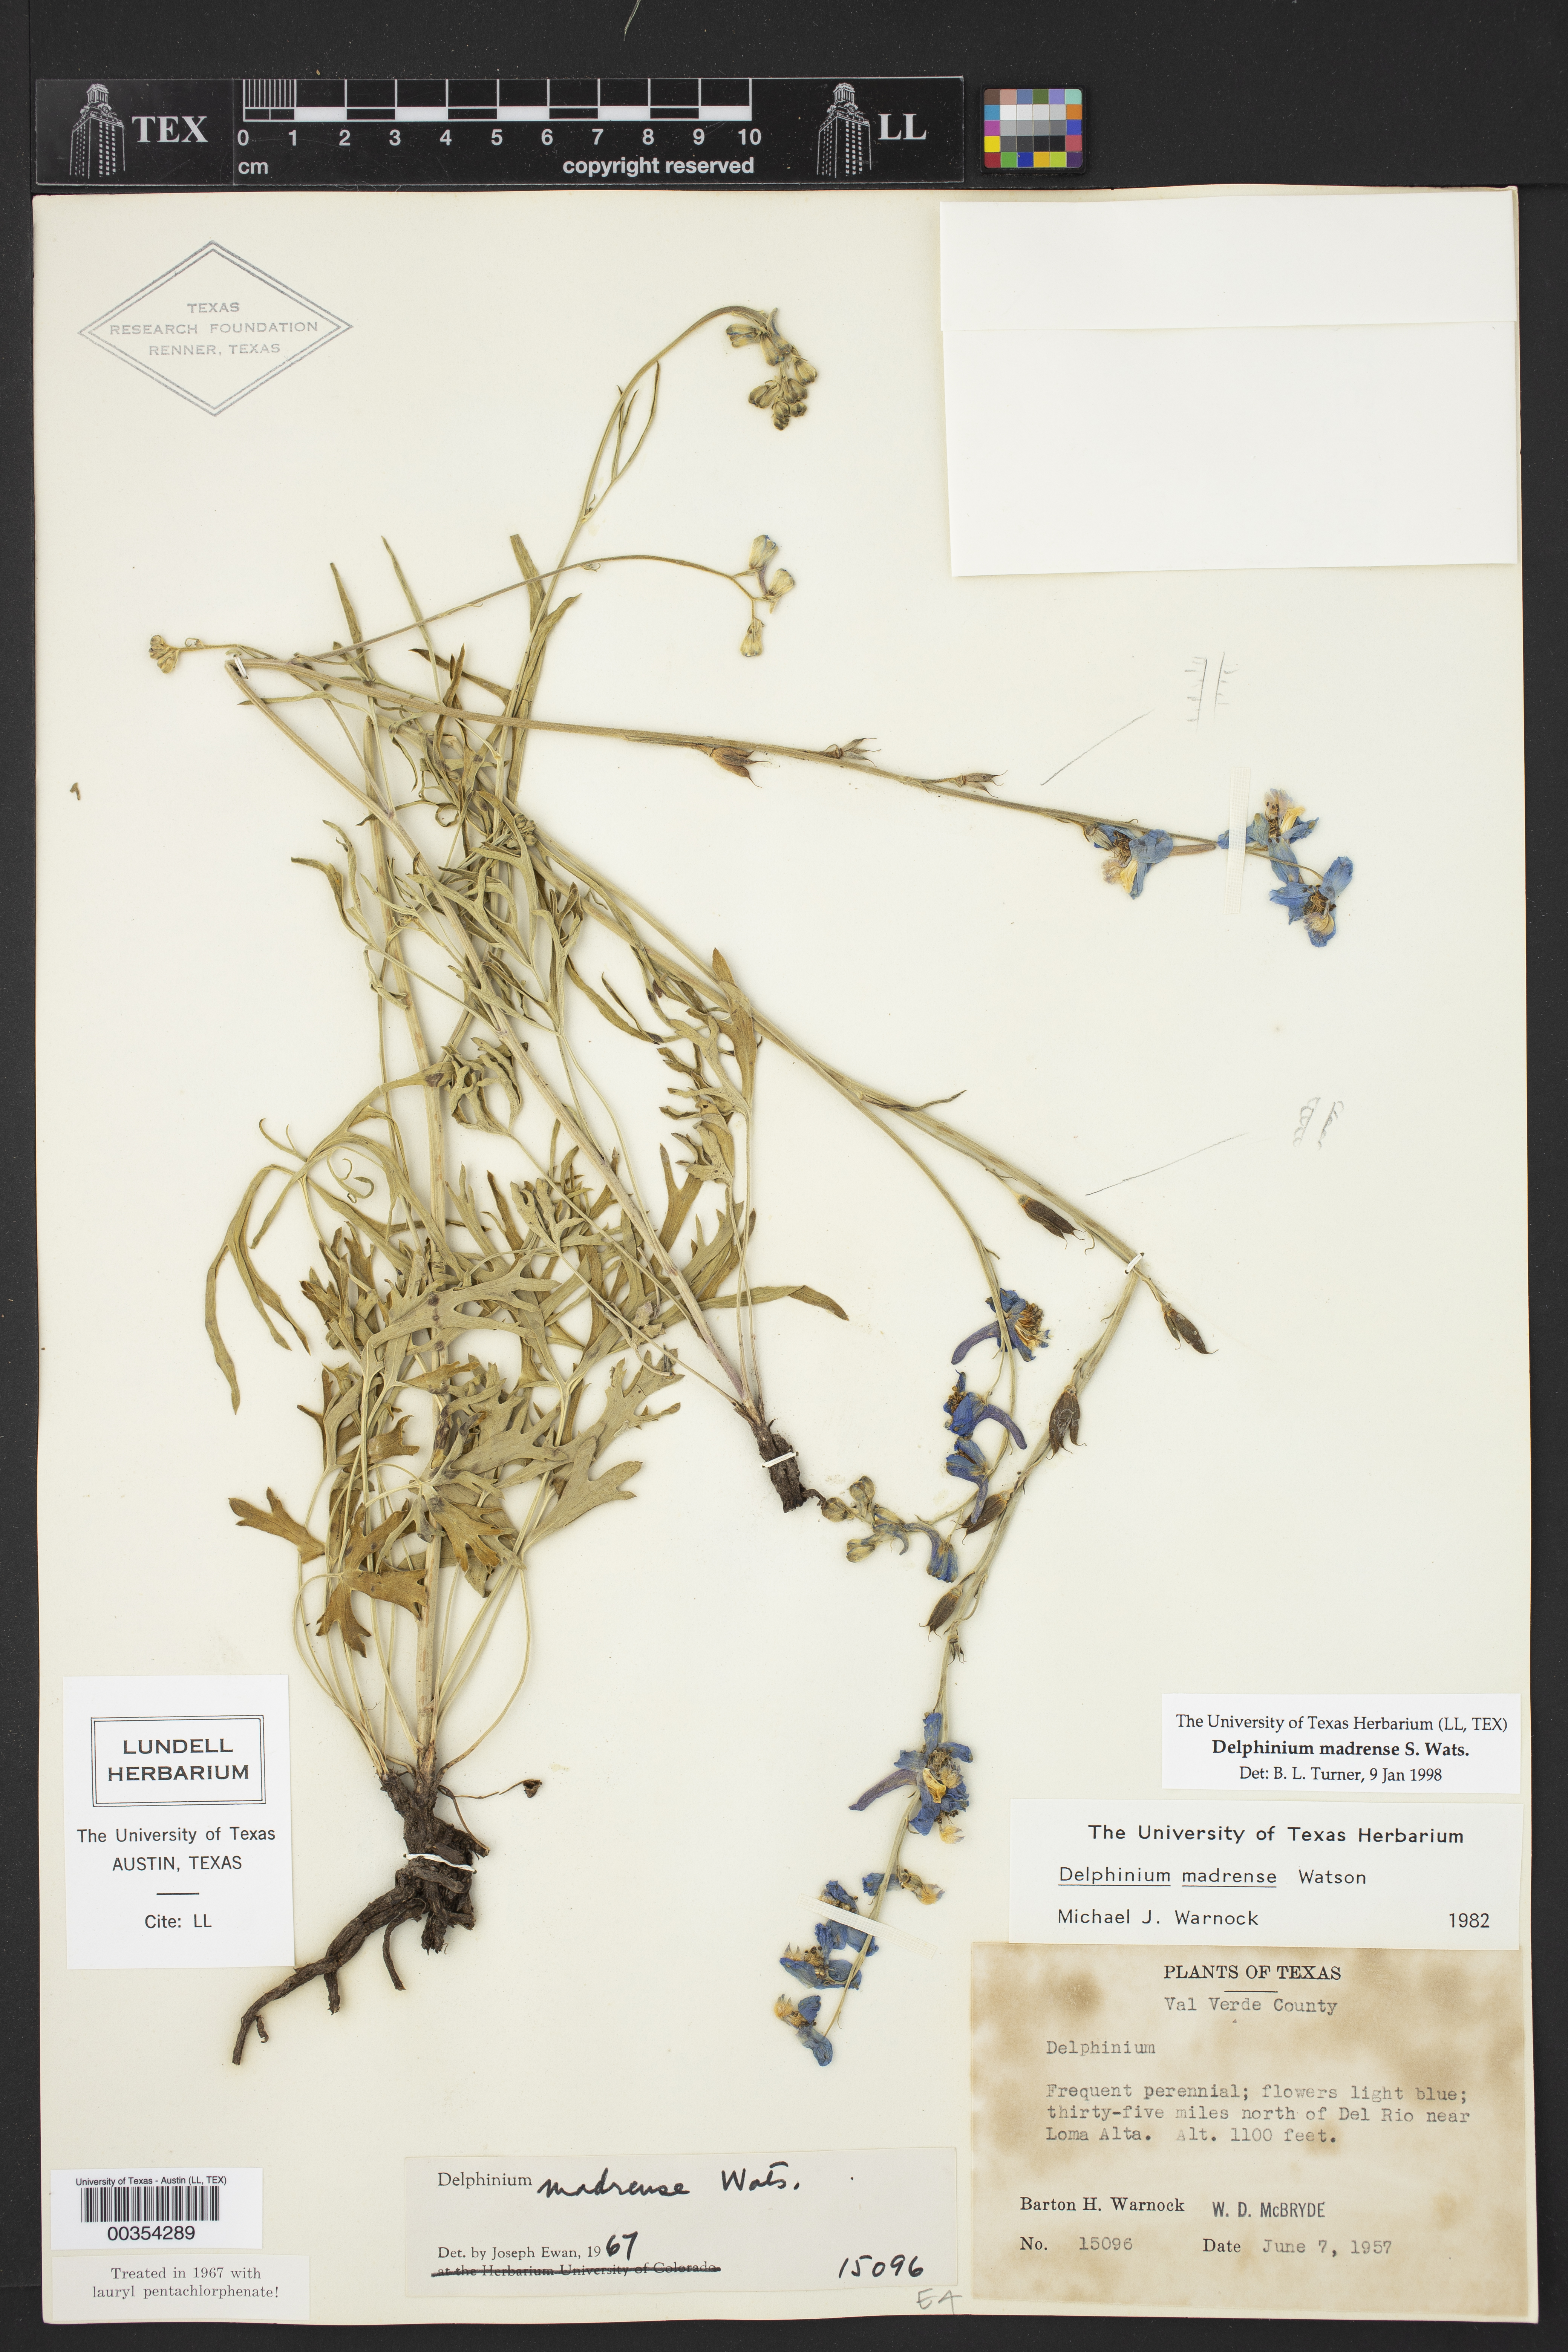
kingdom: Plantae
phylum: Tracheophyta
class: Magnoliopsida
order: Ranunculales
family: Ranunculaceae
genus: Delphinium
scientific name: Delphinium madrense
